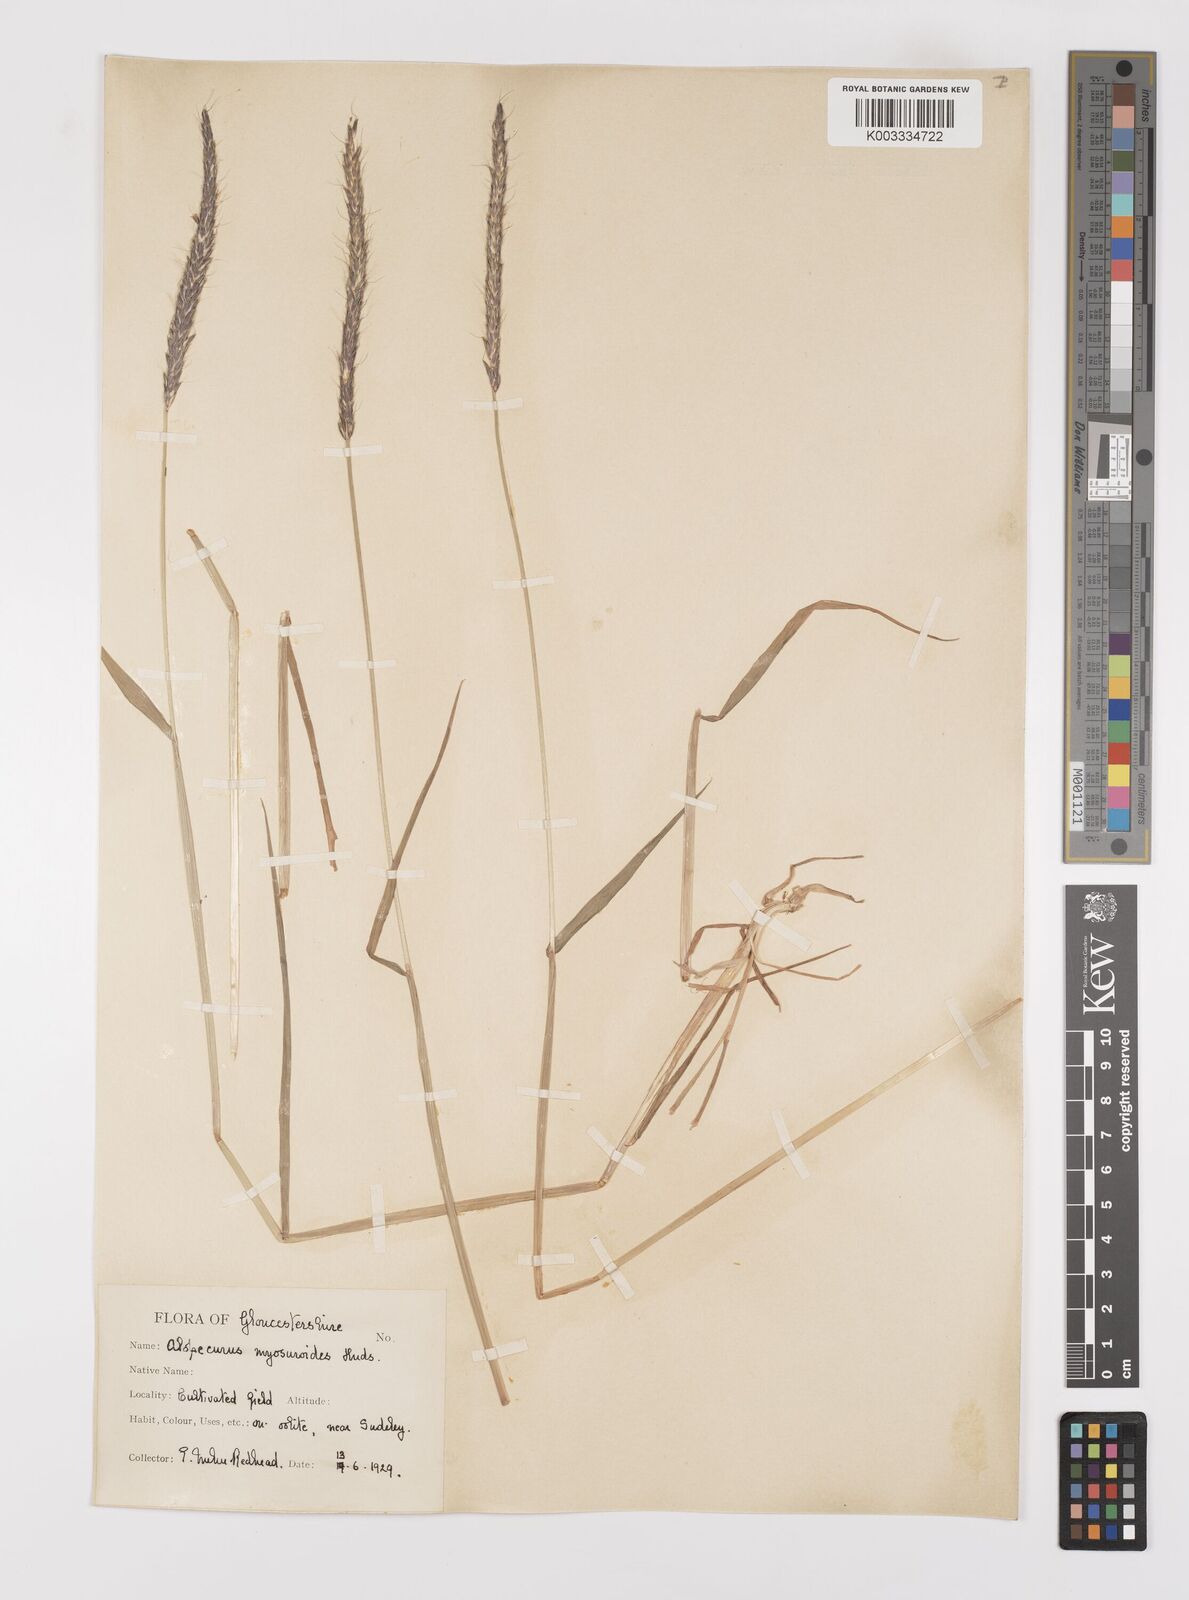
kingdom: Plantae
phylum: Tracheophyta
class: Liliopsida
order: Poales
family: Poaceae
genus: Alopecurus
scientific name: Alopecurus myosuroides
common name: Black-grass
